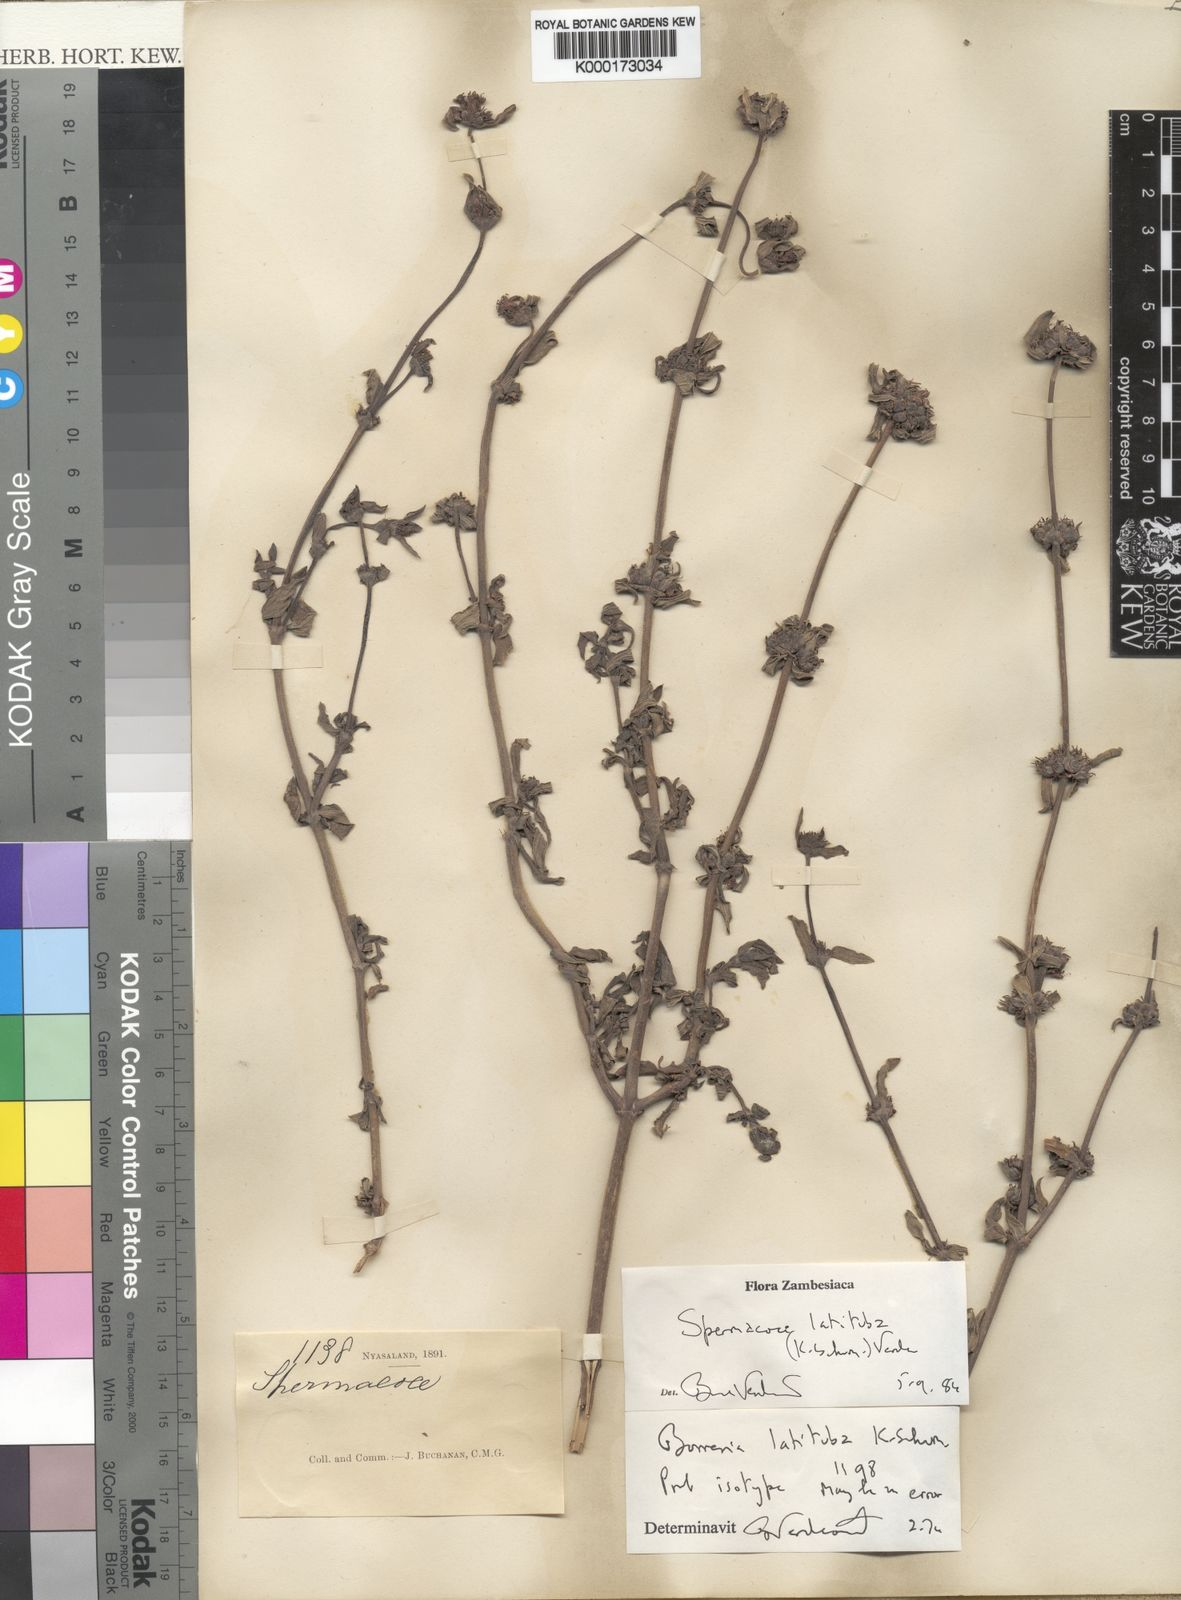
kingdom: Plantae
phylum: Tracheophyta
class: Magnoliopsida
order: Gentianales
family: Rubiaceae
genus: Spermacoce
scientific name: Spermacoce latituba
